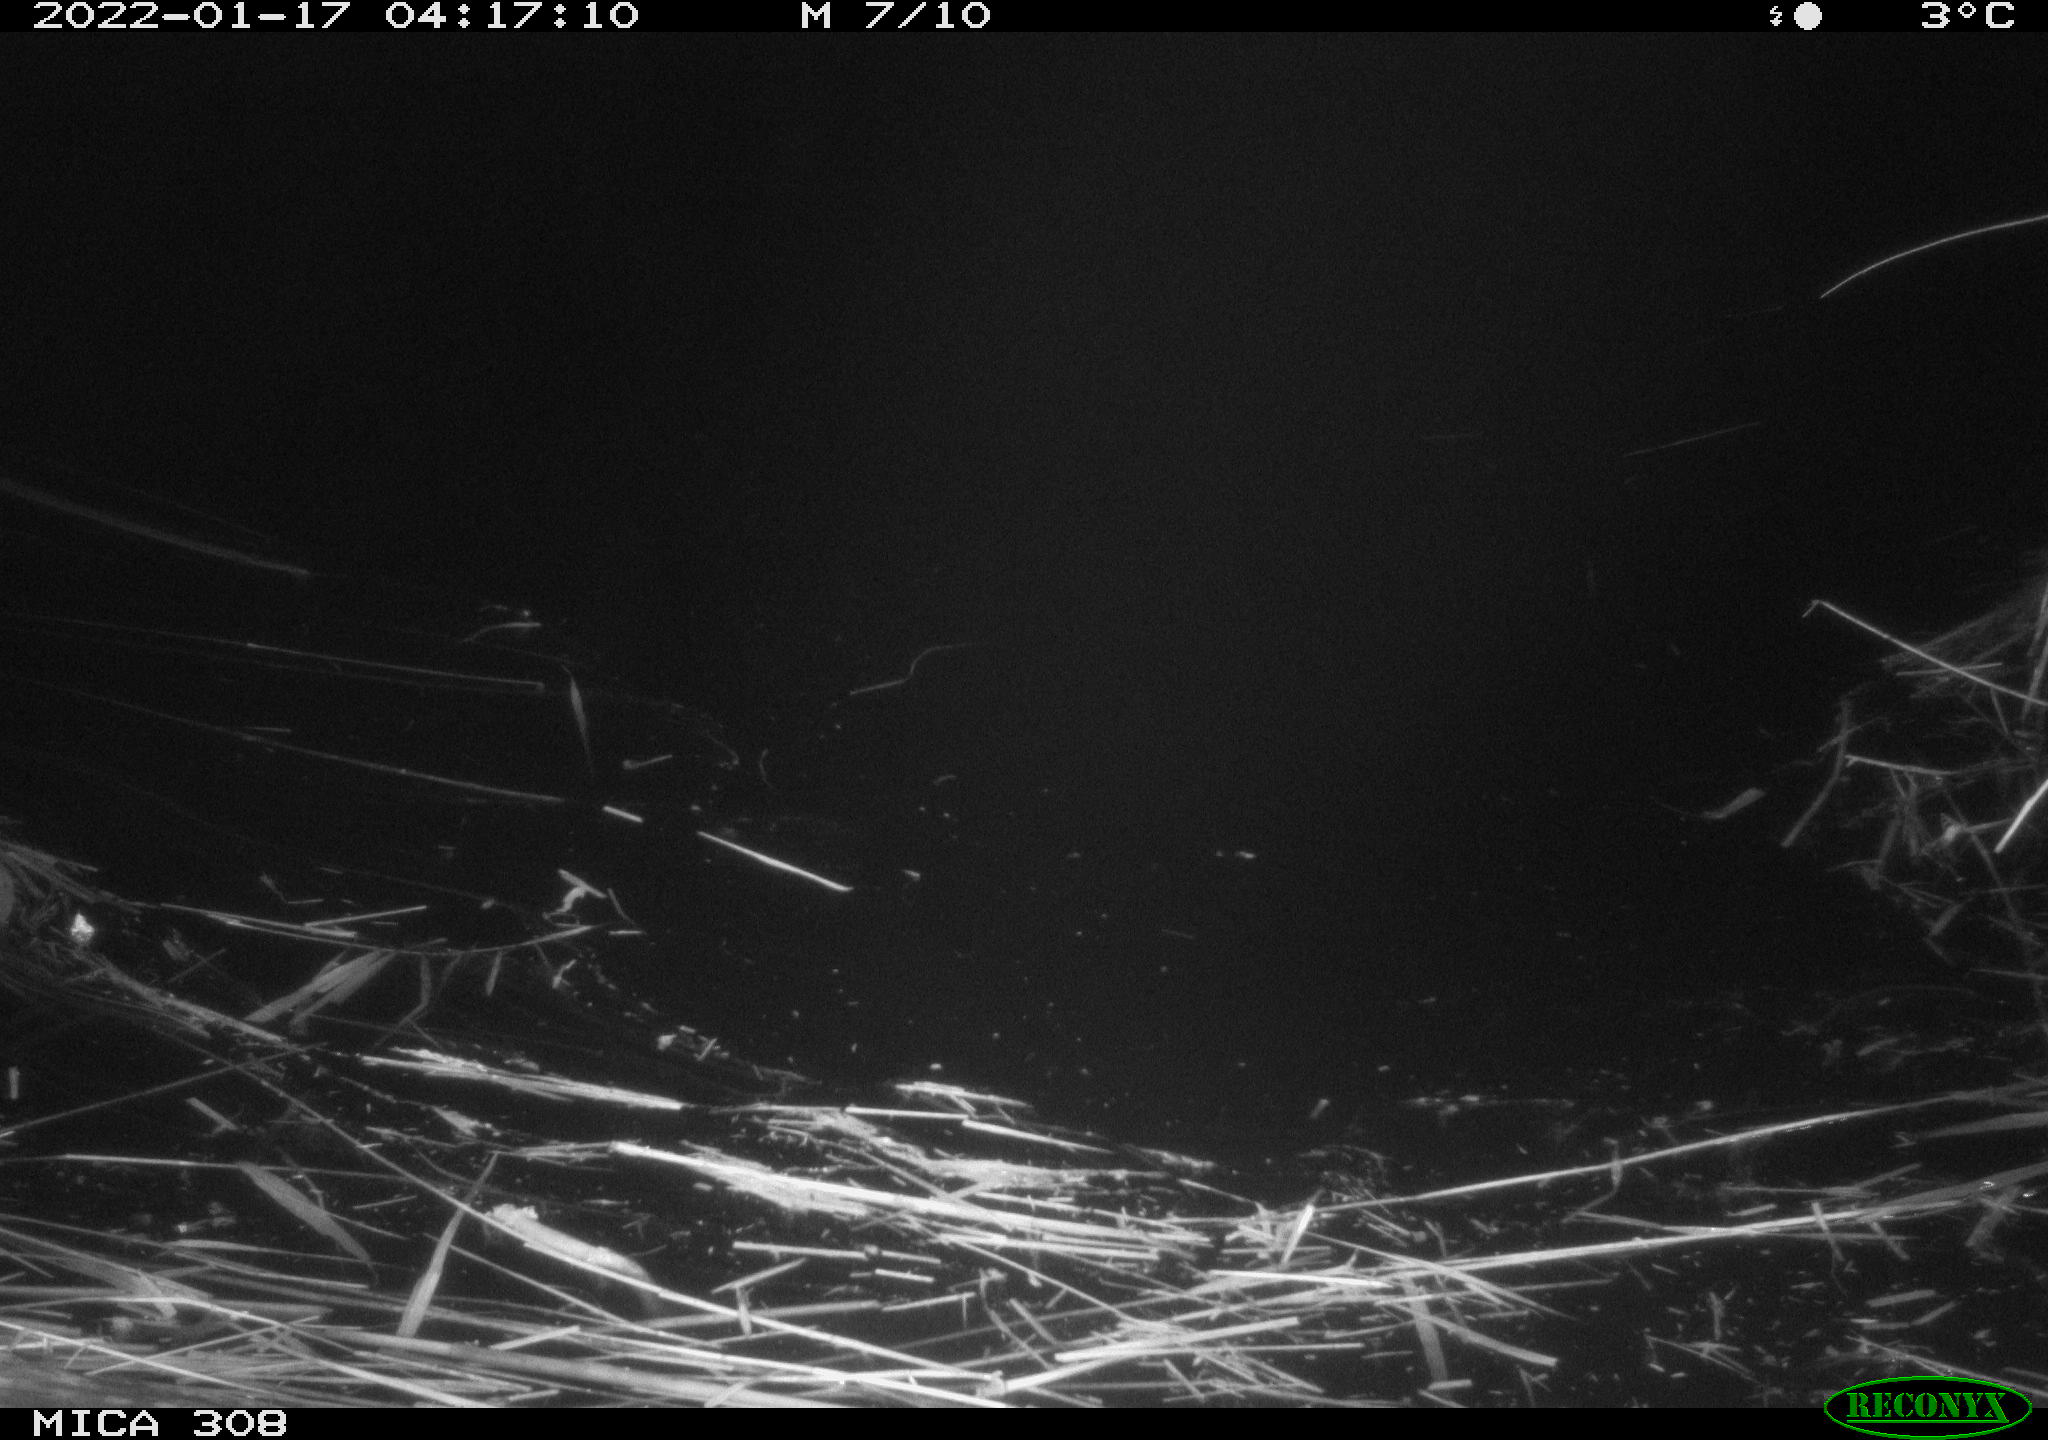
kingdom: Animalia
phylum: Chordata
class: Aves
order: Anseriformes
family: Anatidae
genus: Anas
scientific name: Anas
